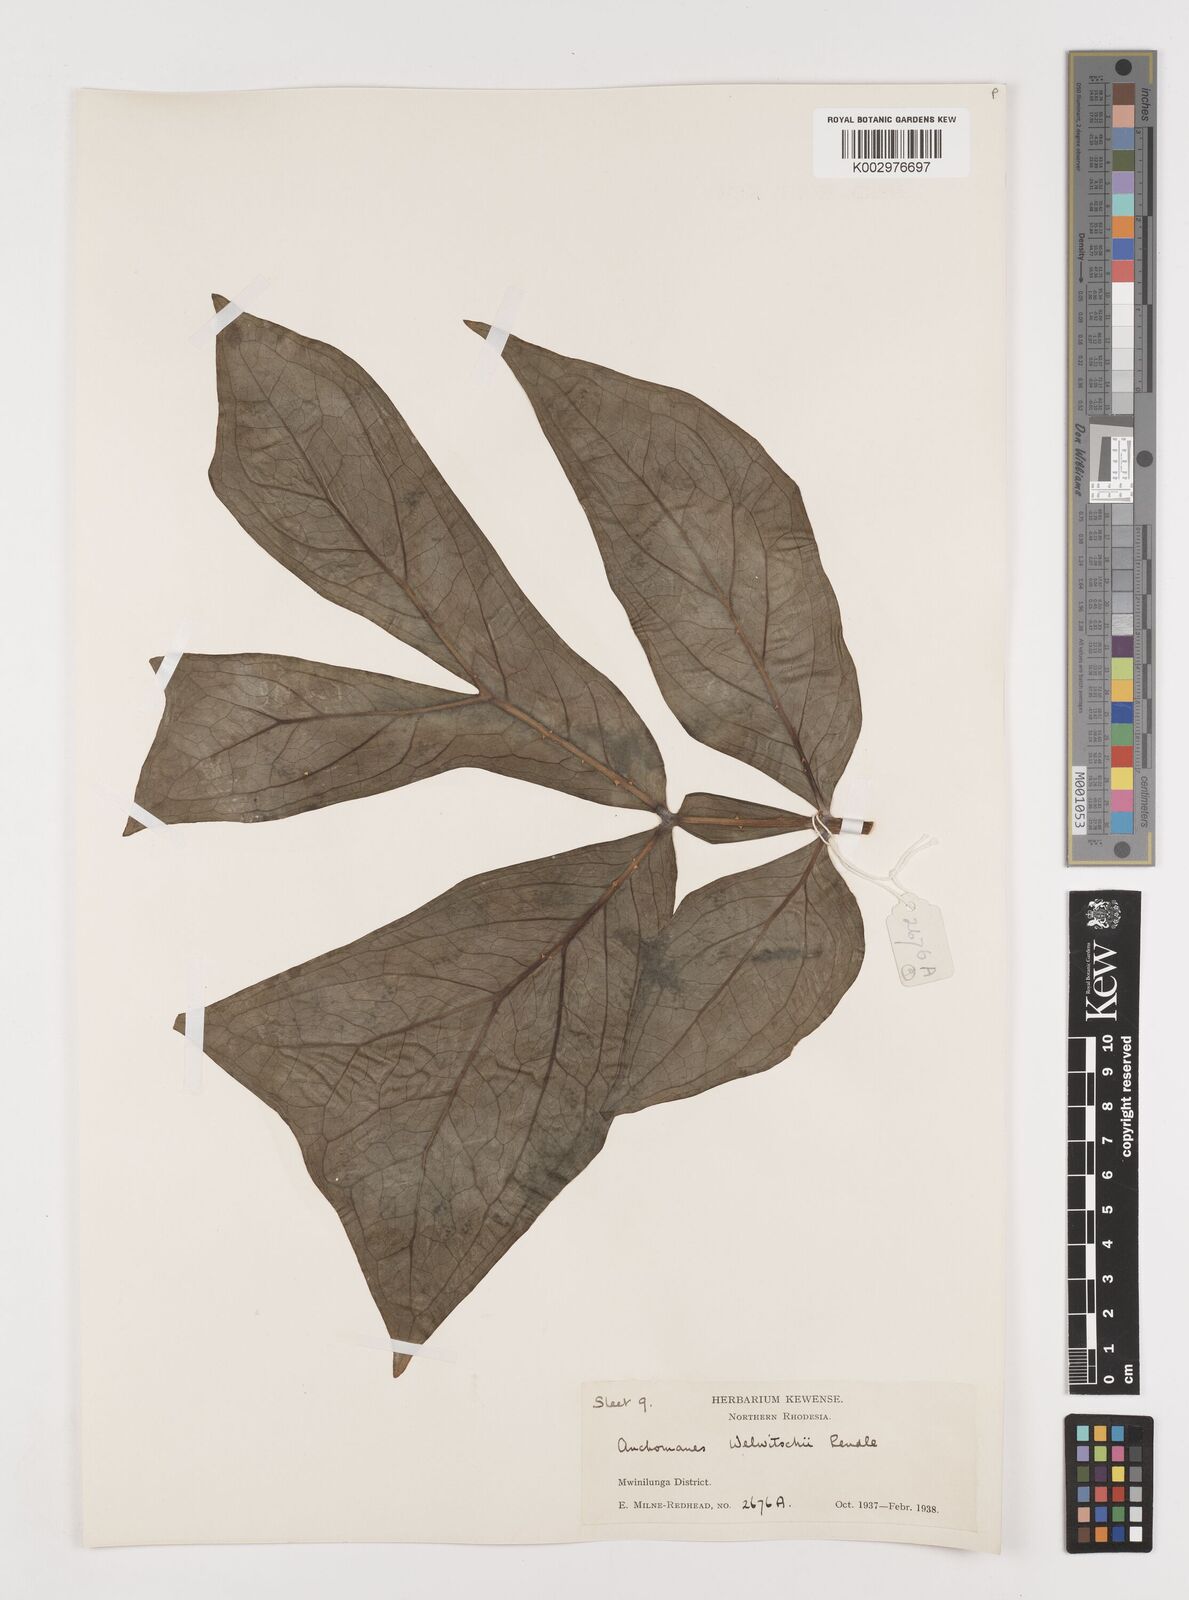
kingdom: Plantae
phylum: Tracheophyta
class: Liliopsida
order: Alismatales
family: Araceae
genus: Anchomanes
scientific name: Anchomanes difformis
